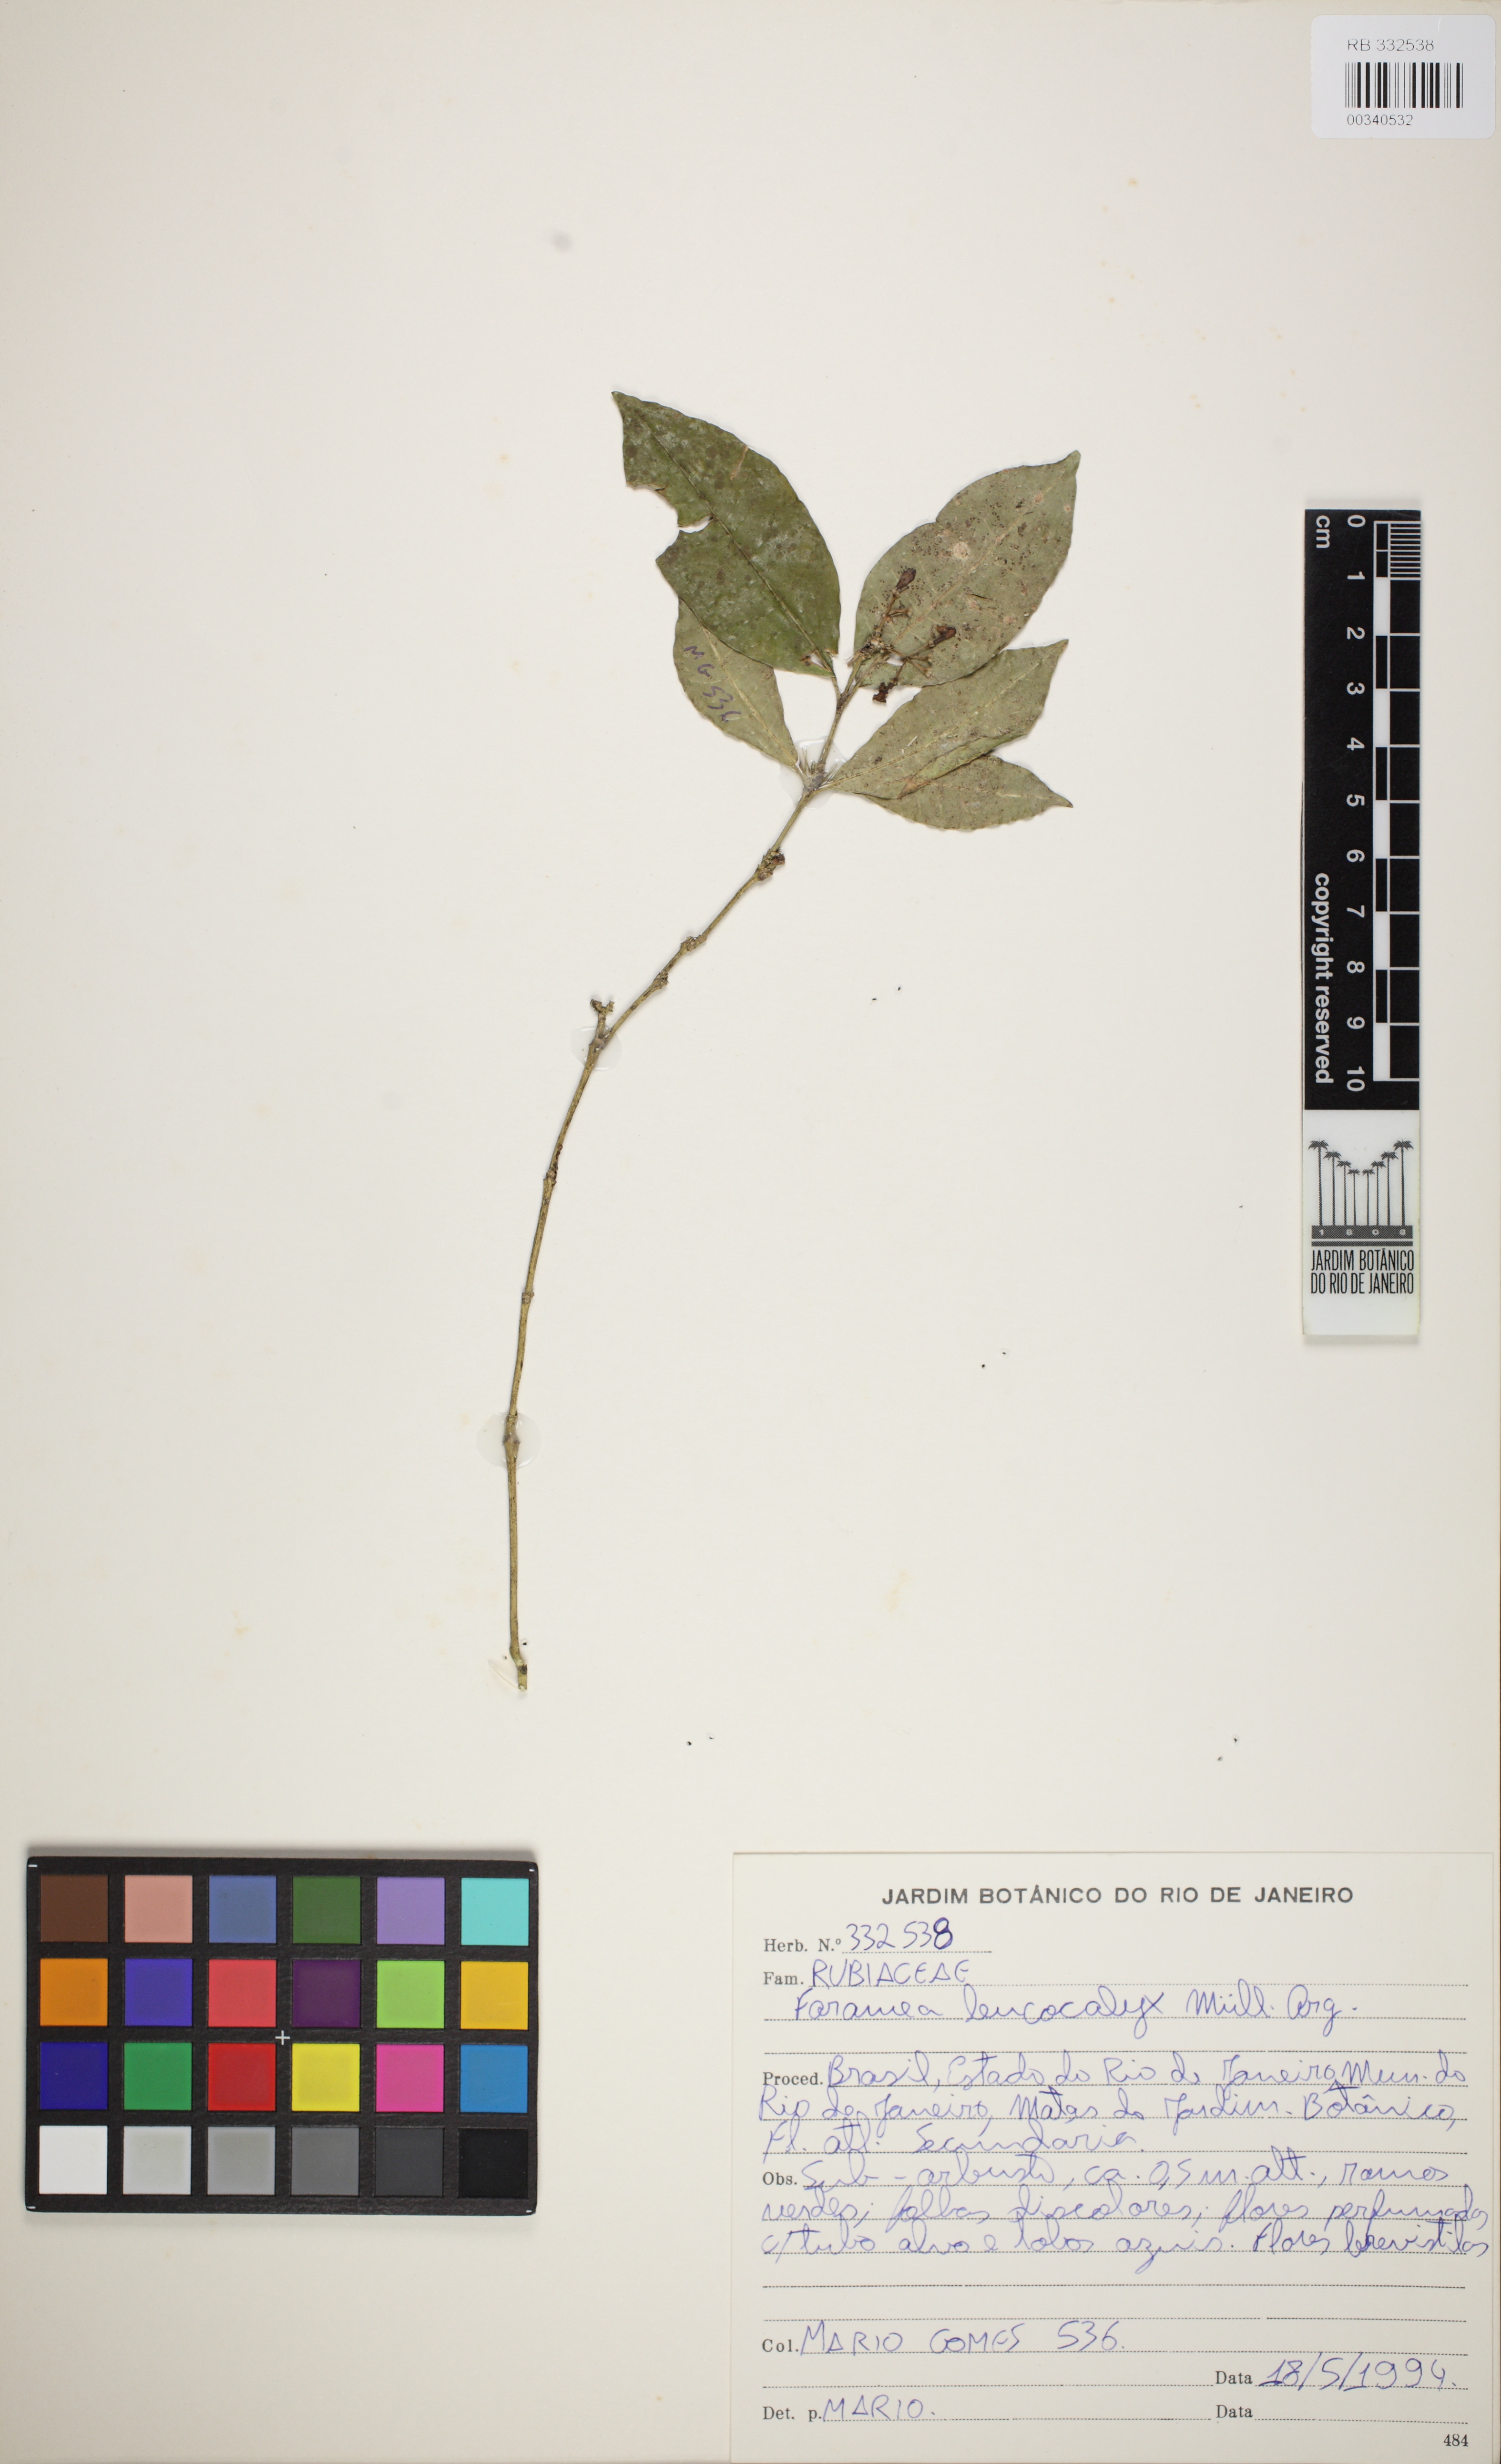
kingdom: Plantae
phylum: Tracheophyta
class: Magnoliopsida
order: Gentianales
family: Rubiaceae
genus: Faramea
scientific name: Faramea leucocalyx
